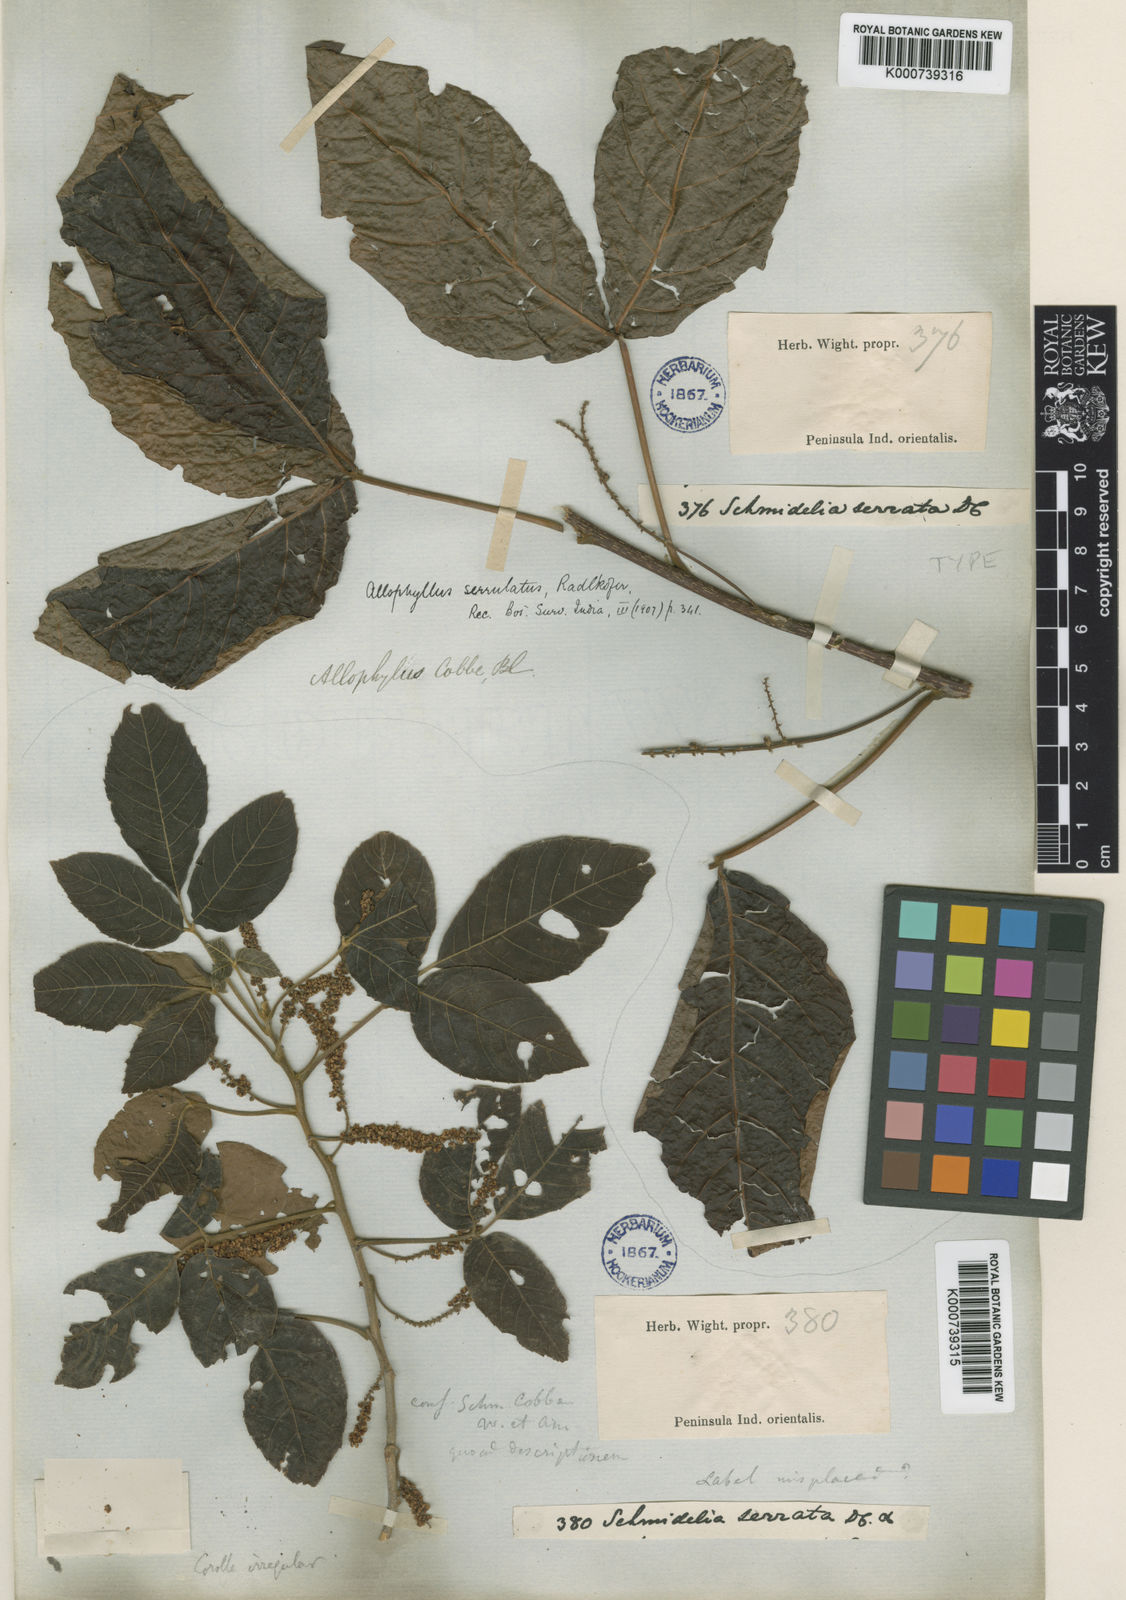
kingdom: Plantae
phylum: Tracheophyta
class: Magnoliopsida
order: Sapindales
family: Sapindaceae
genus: Allophylus
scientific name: Allophylus rheedei
